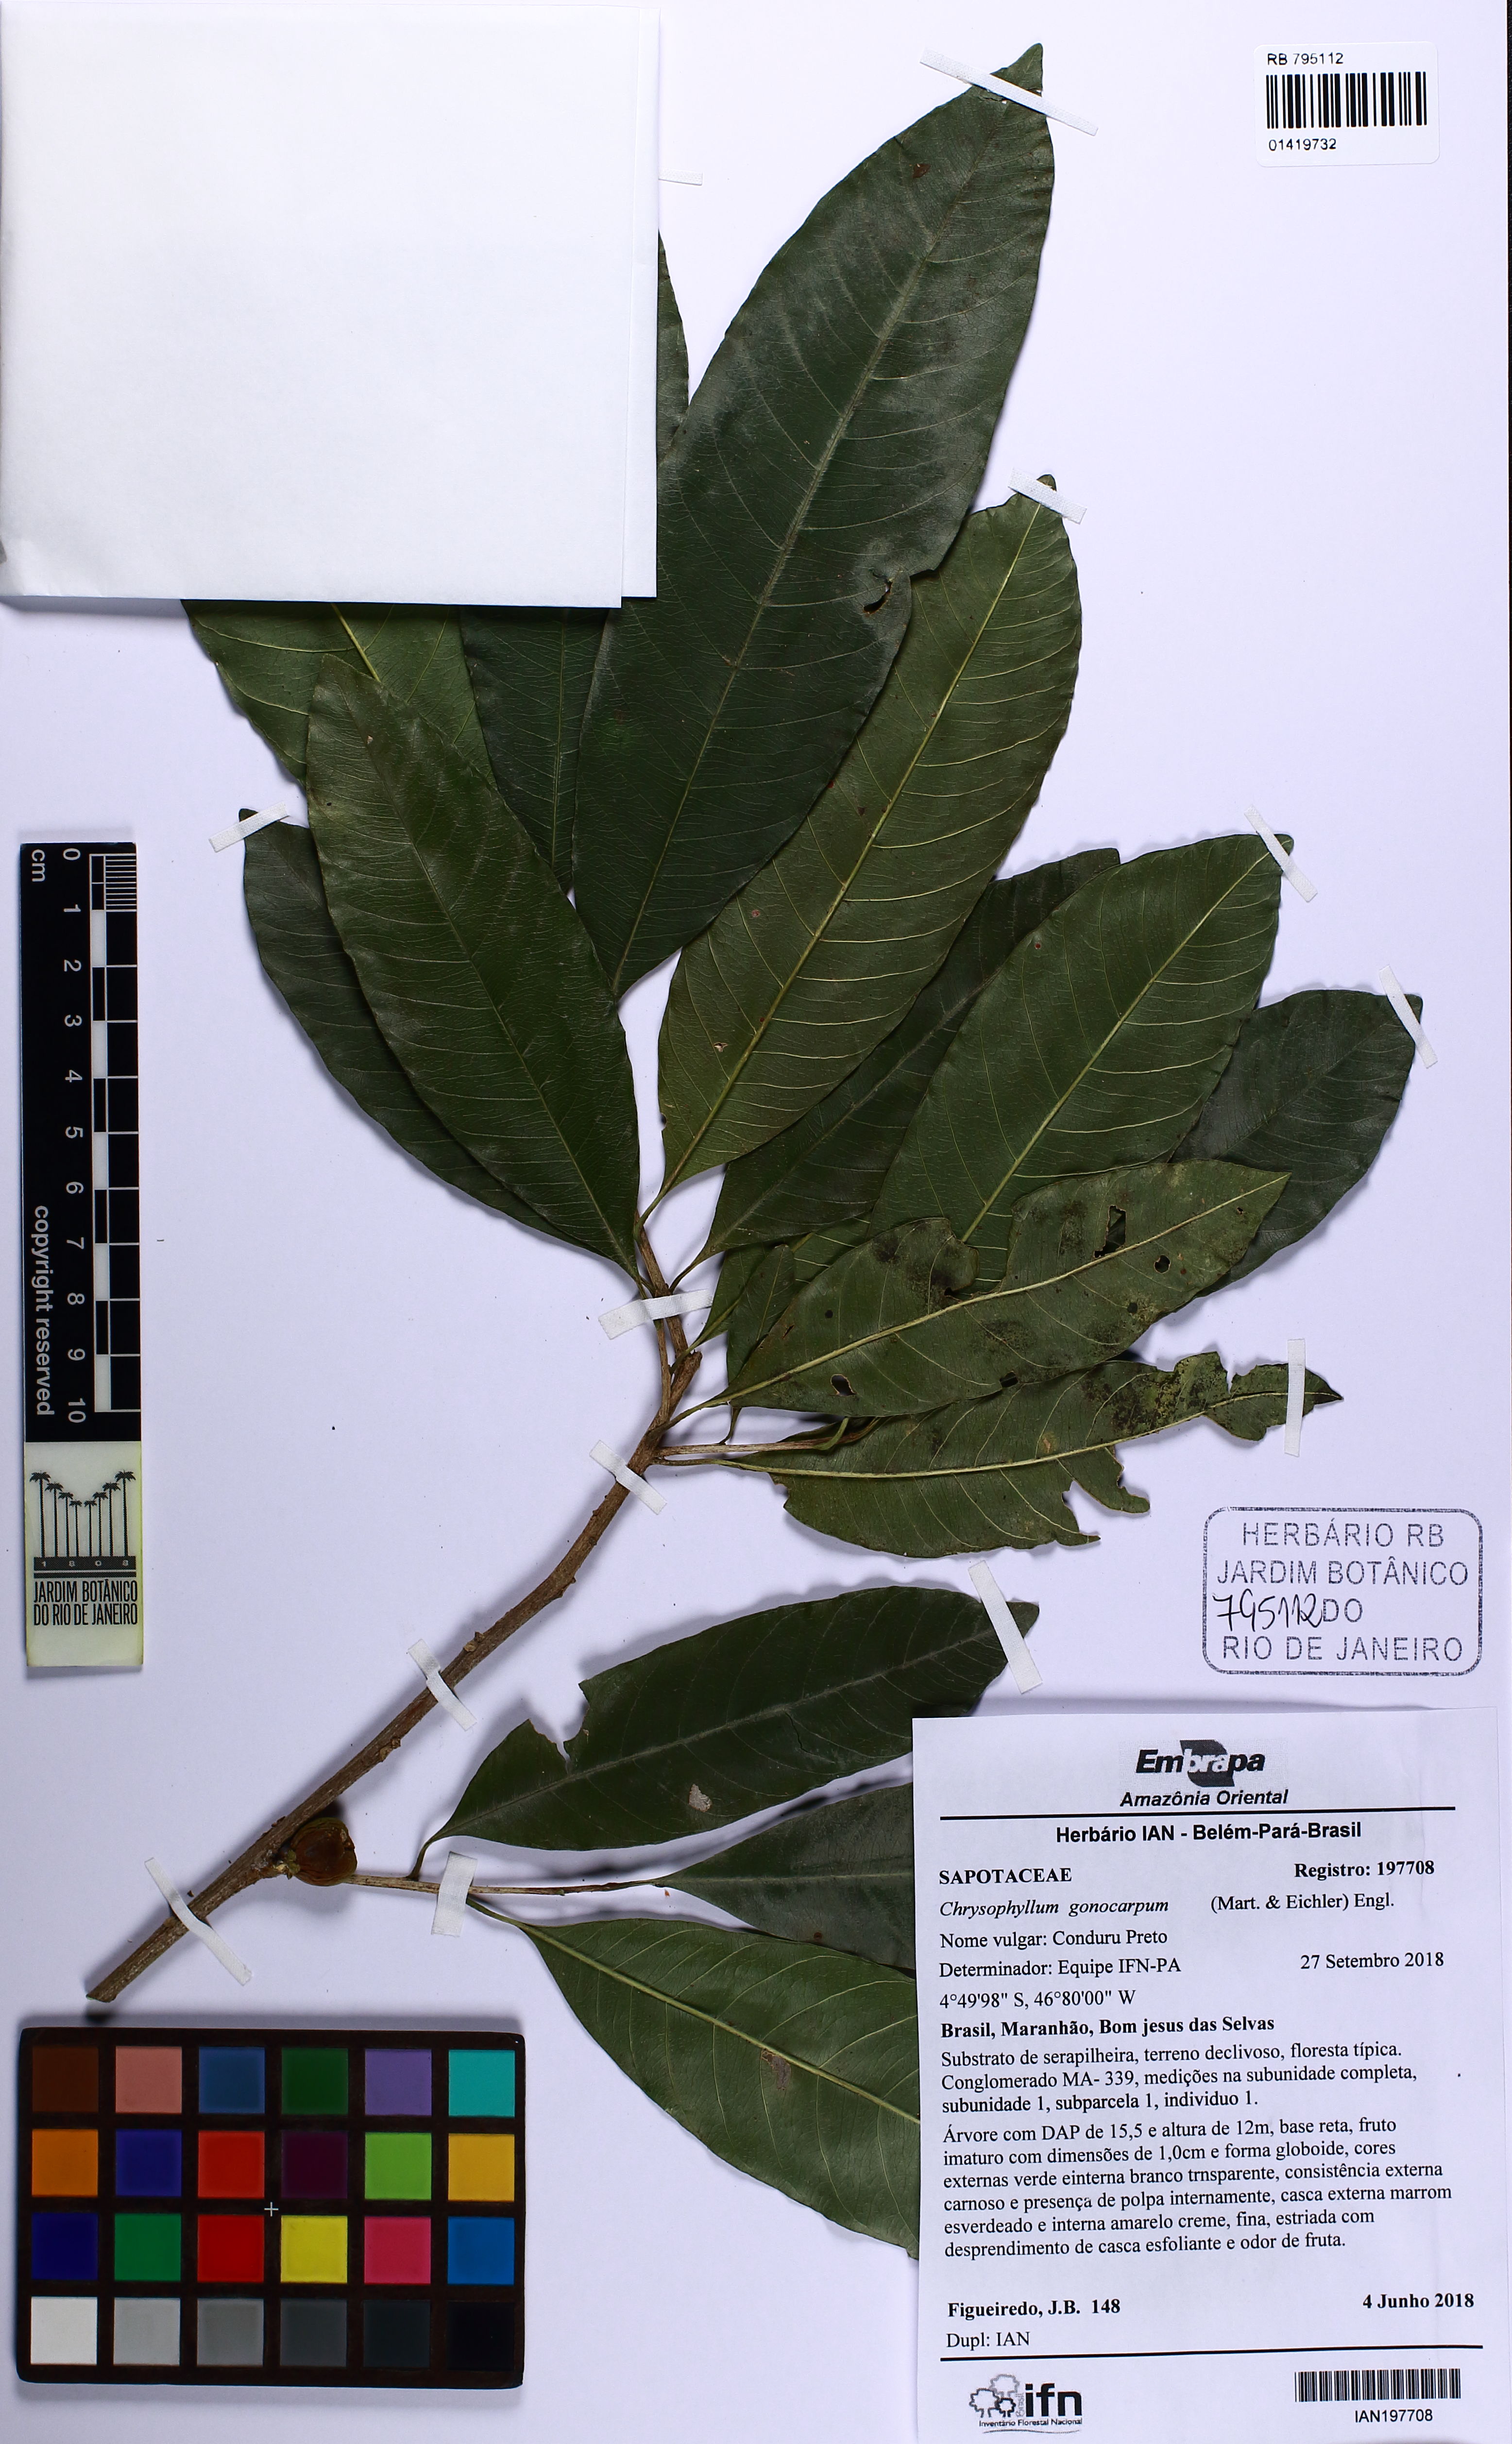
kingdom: Plantae
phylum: Tracheophyta
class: Magnoliopsida
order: Ericales
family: Sapotaceae
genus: Chrysophyllum
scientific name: Chrysophyllum gonocarpum
